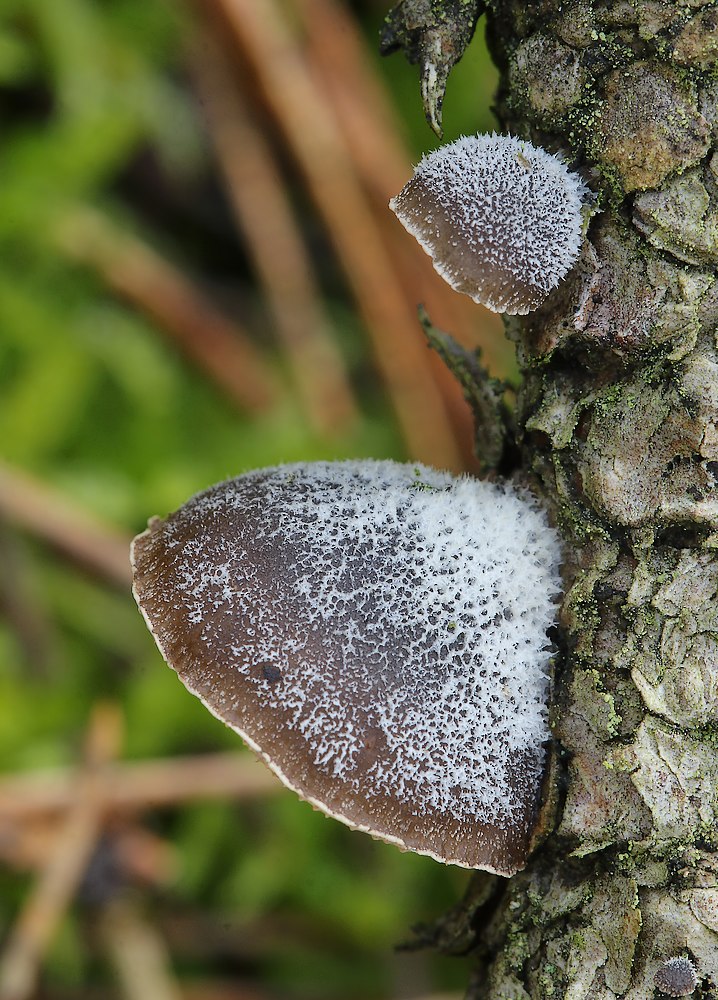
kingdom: Fungi
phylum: Basidiomycota
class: Agaricomycetes
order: Agaricales
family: Pleurotaceae
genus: Hohenbuehelia
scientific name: Hohenbuehelia atrocoerulea
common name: blålig filthat
